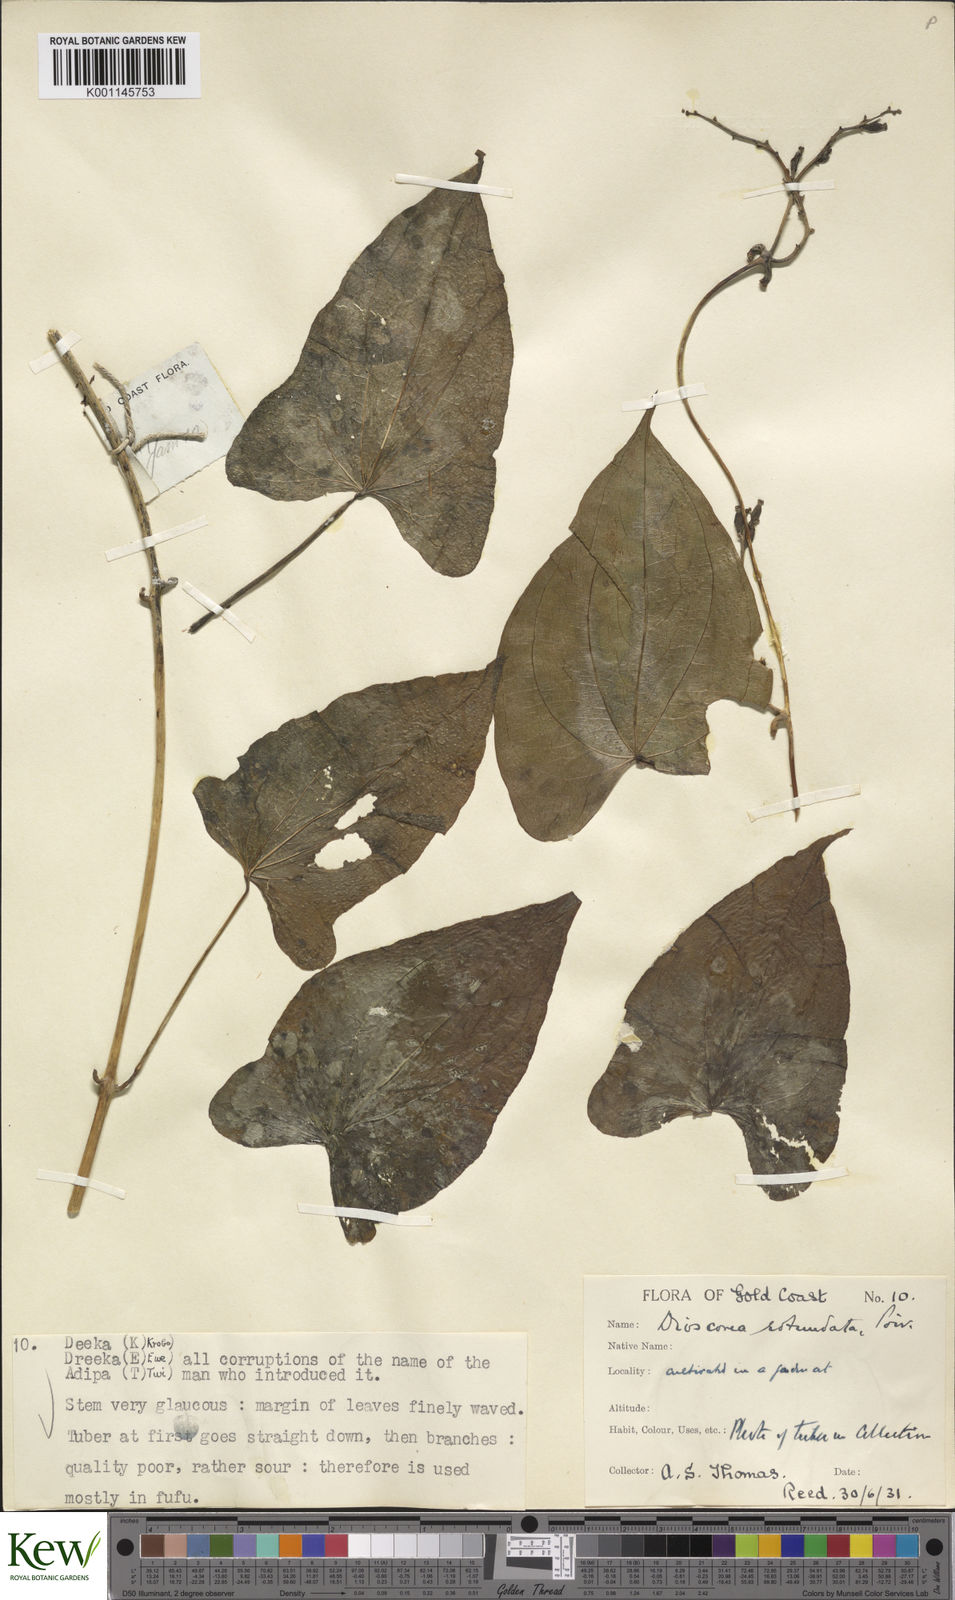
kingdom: Plantae
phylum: Tracheophyta
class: Liliopsida
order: Dioscoreales
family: Dioscoreaceae
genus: Dioscorea
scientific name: Dioscorea cayenensis
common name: Attoto yam
